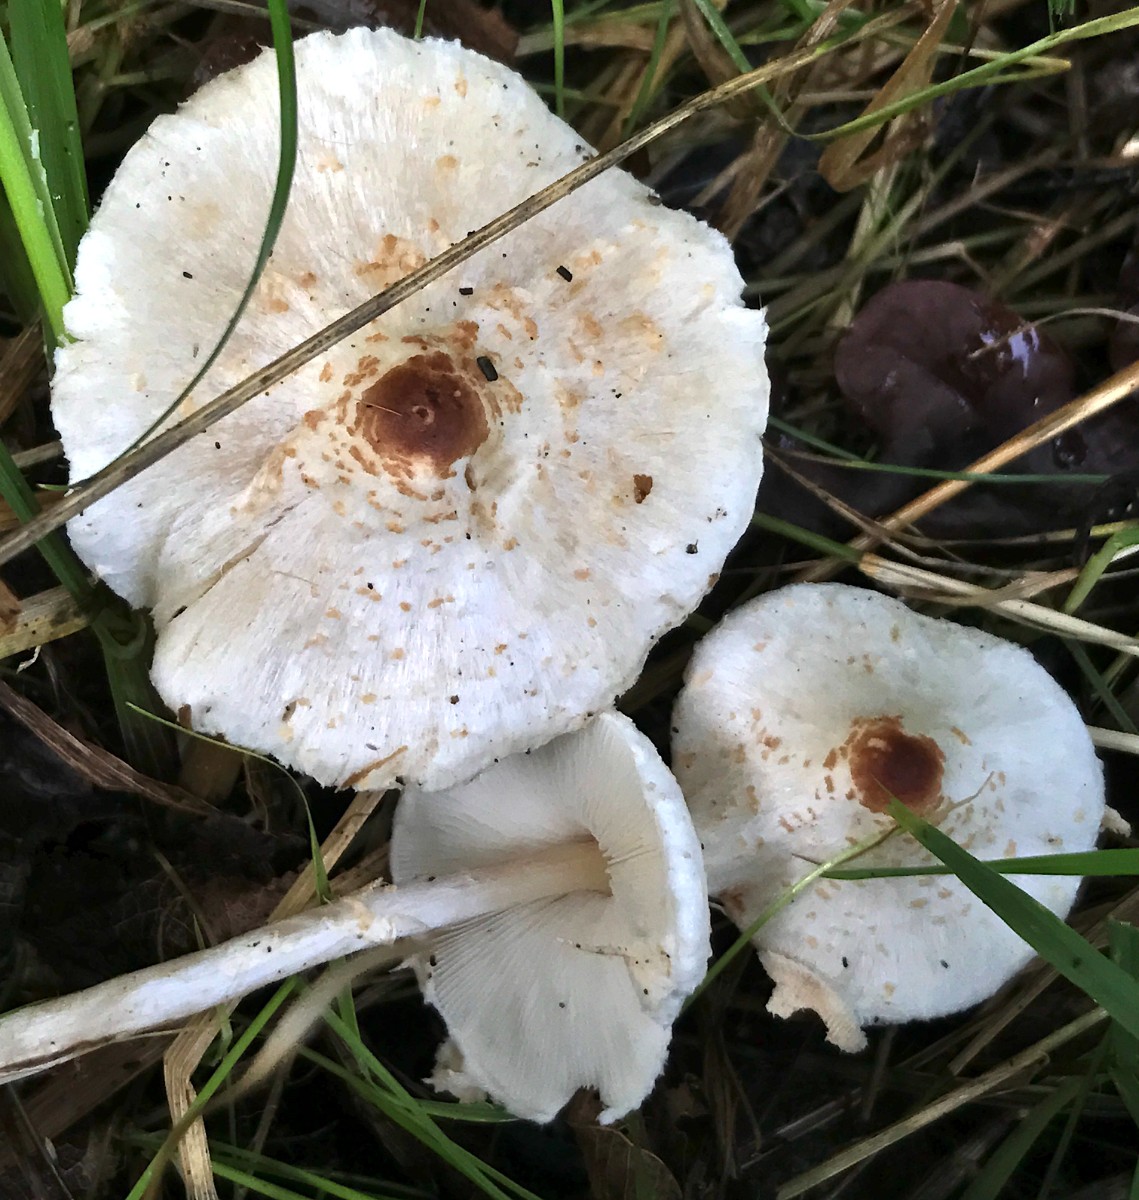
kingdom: Fungi
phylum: Basidiomycota
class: Agaricomycetes
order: Agaricales
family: Agaricaceae
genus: Lepiota
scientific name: Lepiota cristata
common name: stinkende parasolhat
